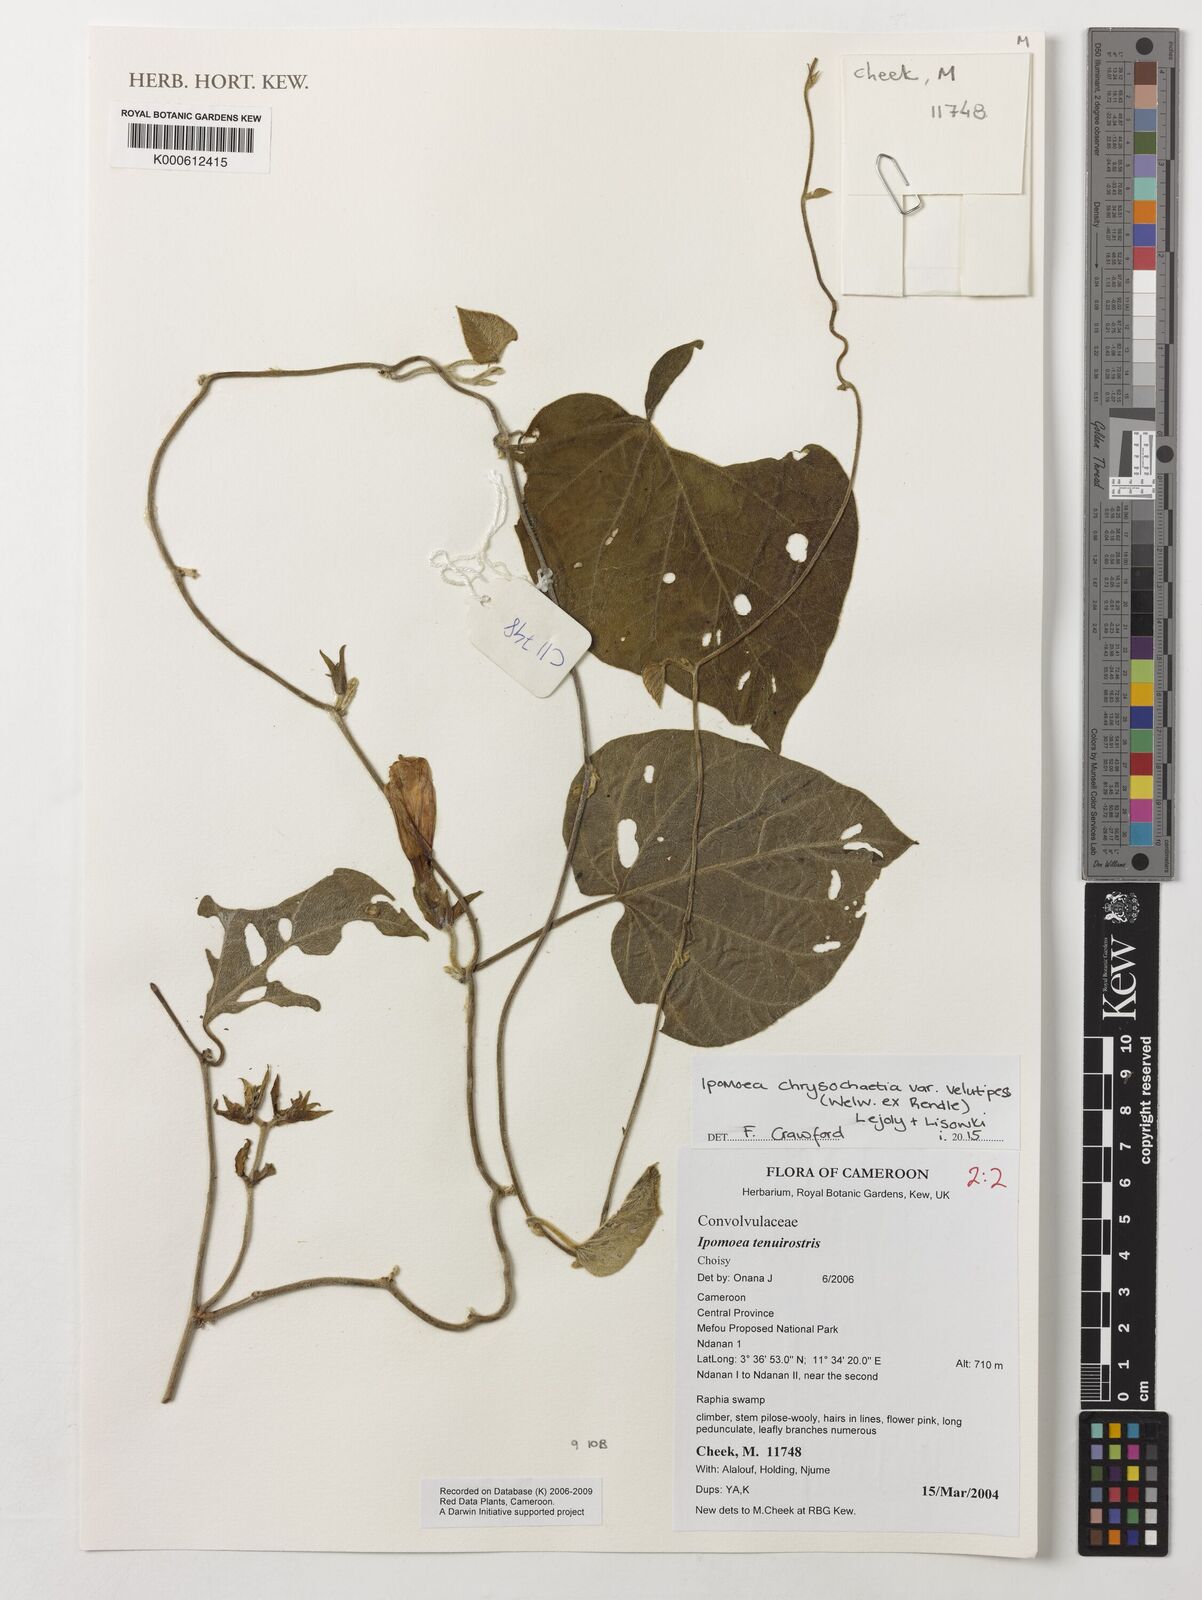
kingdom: Plantae
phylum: Tracheophyta
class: Magnoliopsida
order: Oxalidales
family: Elaeocarpaceae
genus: Elaeocarpus
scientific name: Elaeocarpus floridanus
